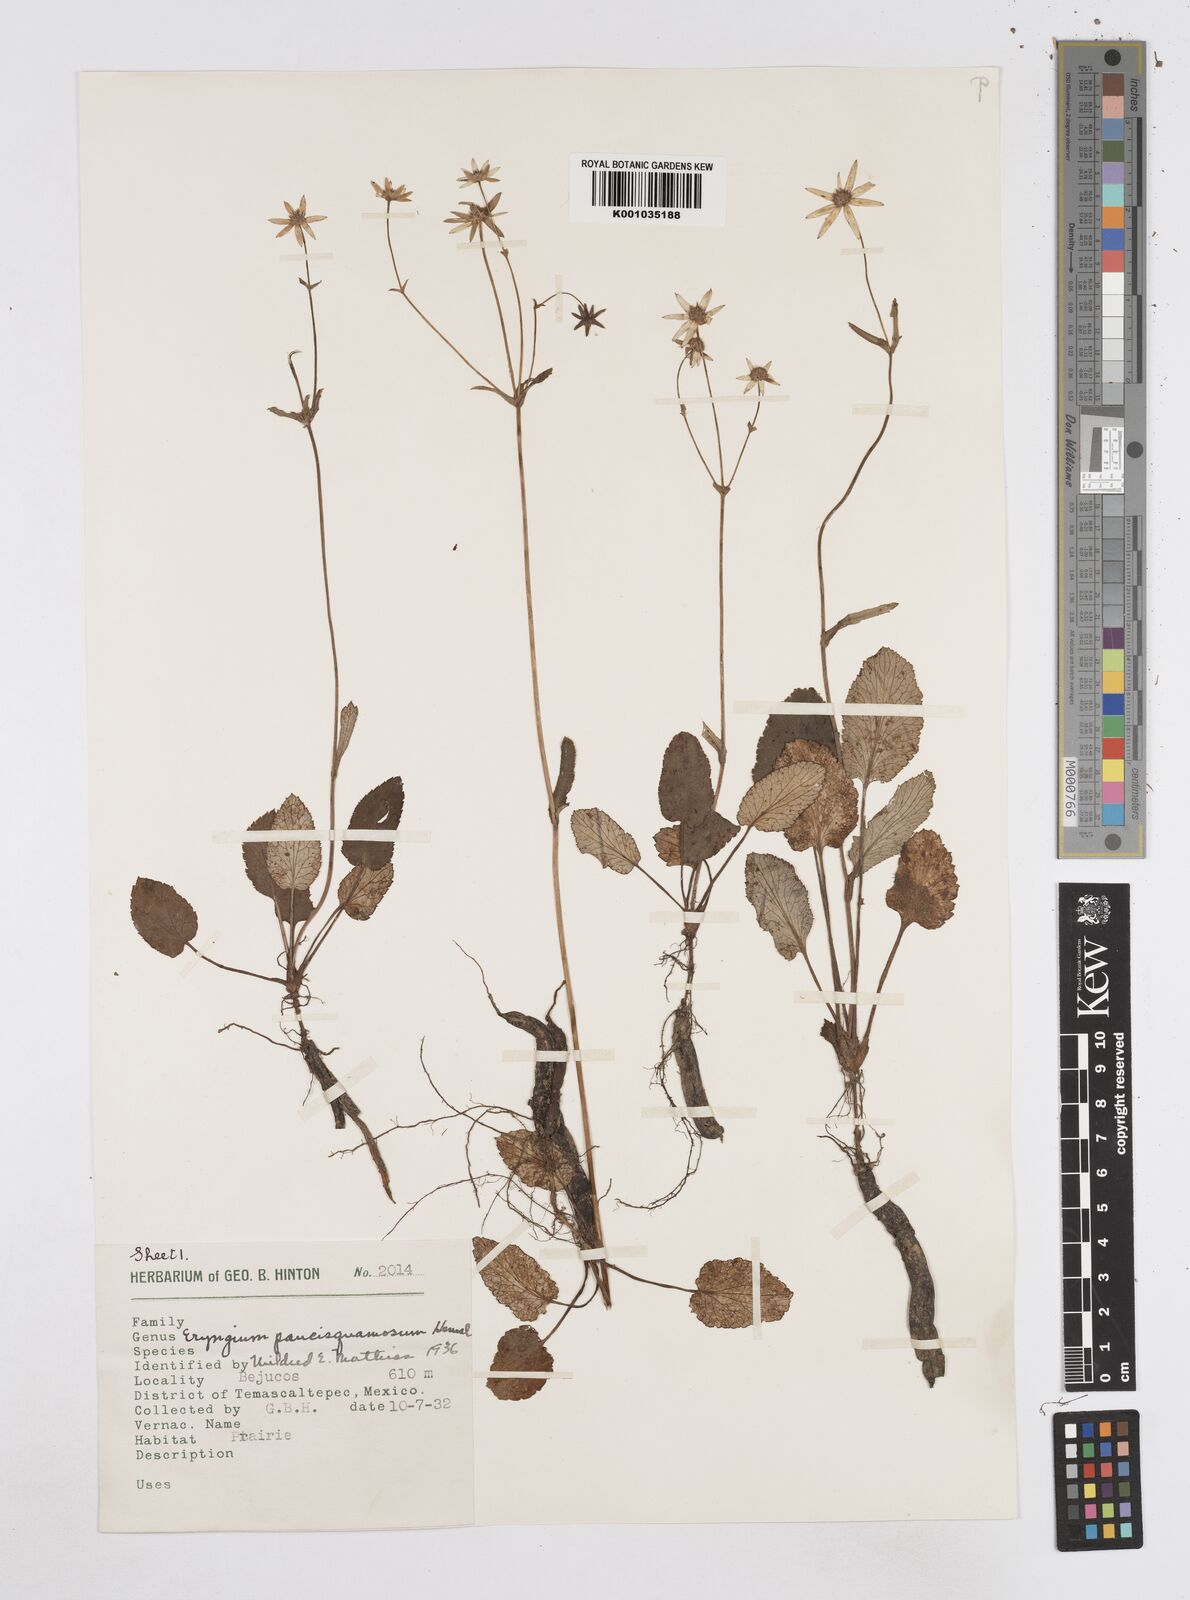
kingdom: Plantae
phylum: Tracheophyta
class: Magnoliopsida
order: Apiales
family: Apiaceae
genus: Eryngium
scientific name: Eryngium gracile
